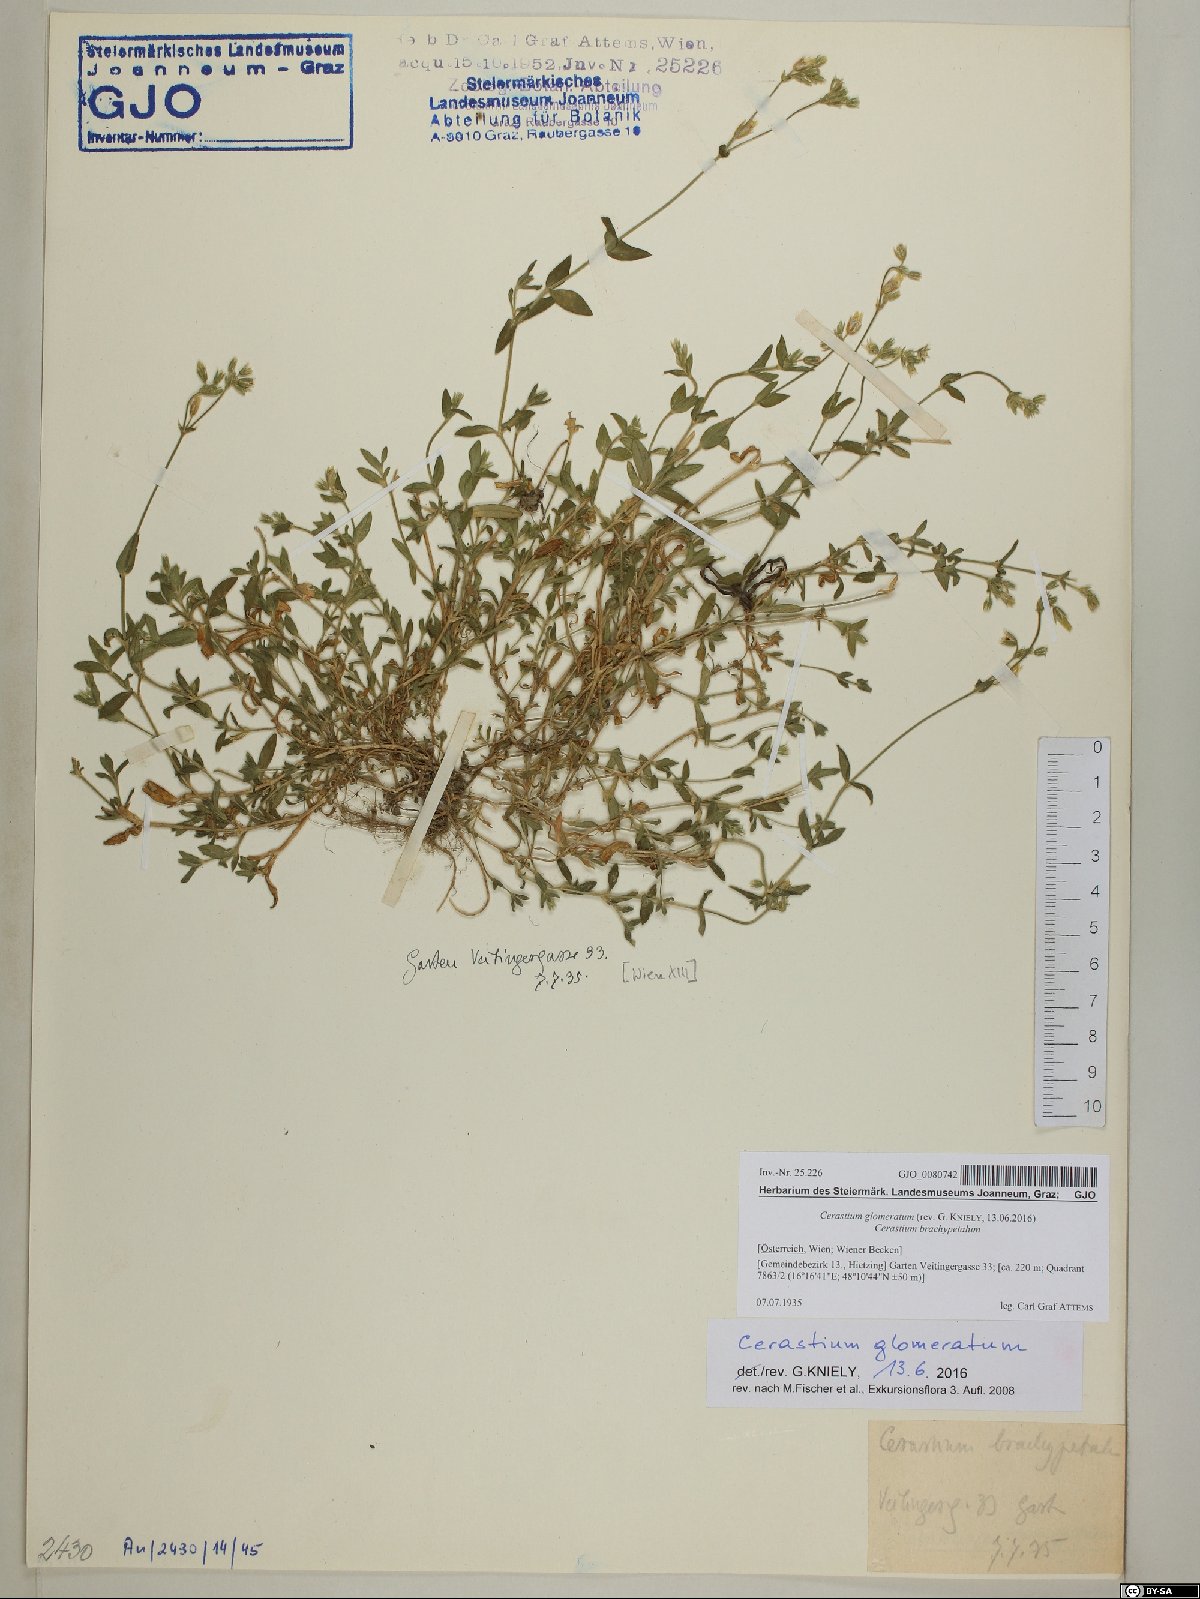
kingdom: Plantae
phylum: Tracheophyta
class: Magnoliopsida
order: Caryophyllales
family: Caryophyllaceae
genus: Cerastium
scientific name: Cerastium glomeratum
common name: Sticky chickweed
